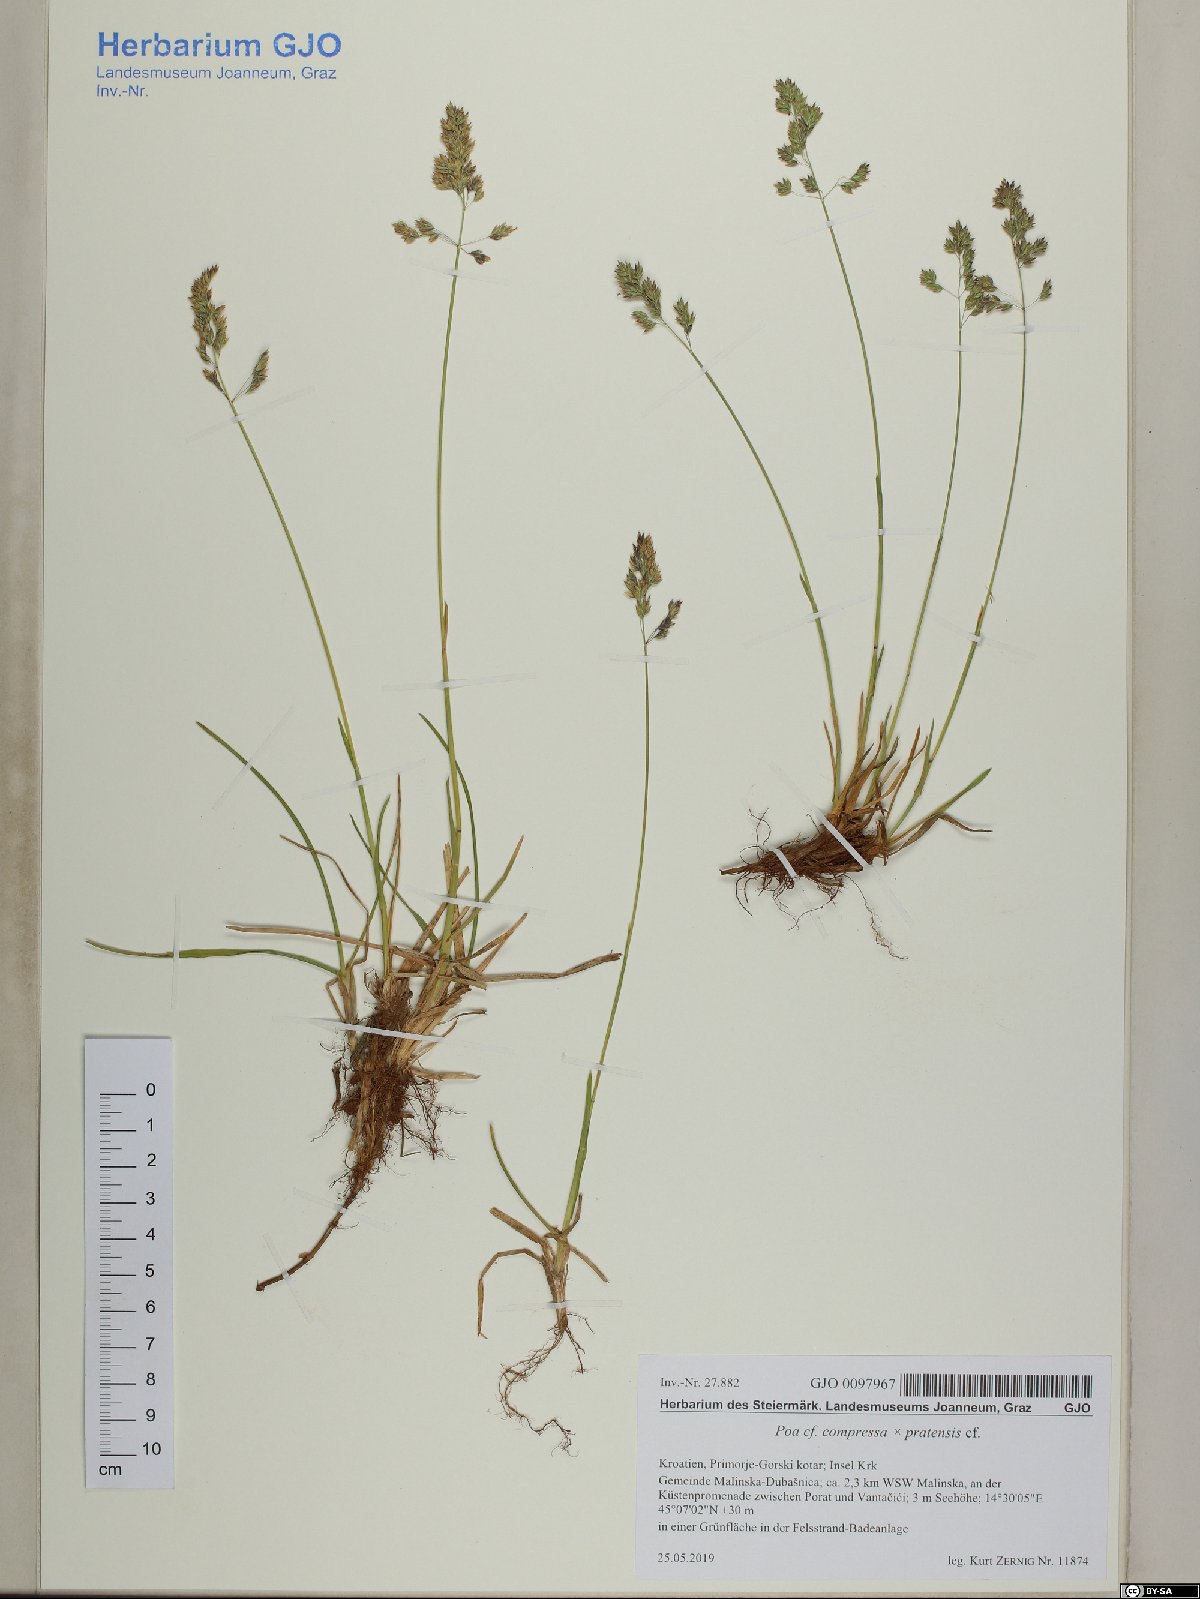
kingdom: Plantae
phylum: Tracheophyta
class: Liliopsida
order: Poales
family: Poaceae
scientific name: Poaceae
